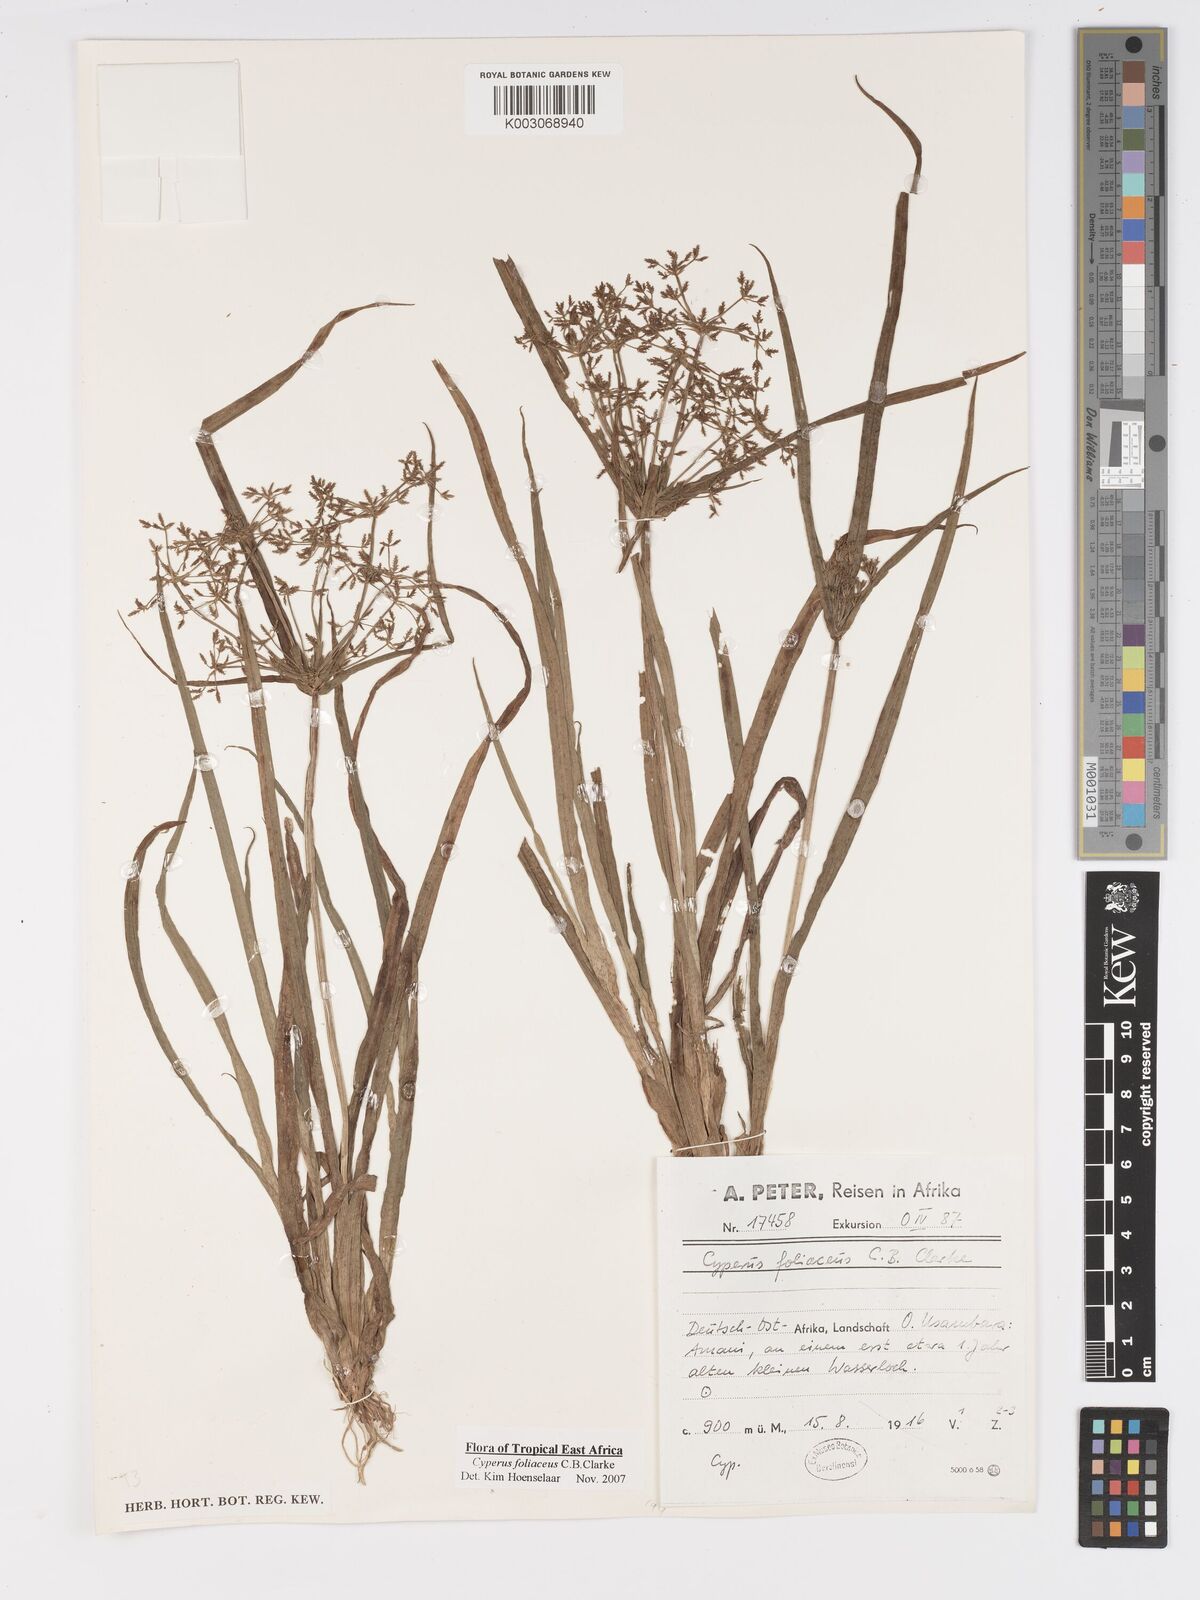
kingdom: Plantae
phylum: Tracheophyta
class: Liliopsida
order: Poales
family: Cyperaceae
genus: Cyperus
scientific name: Cyperus foliaceus
